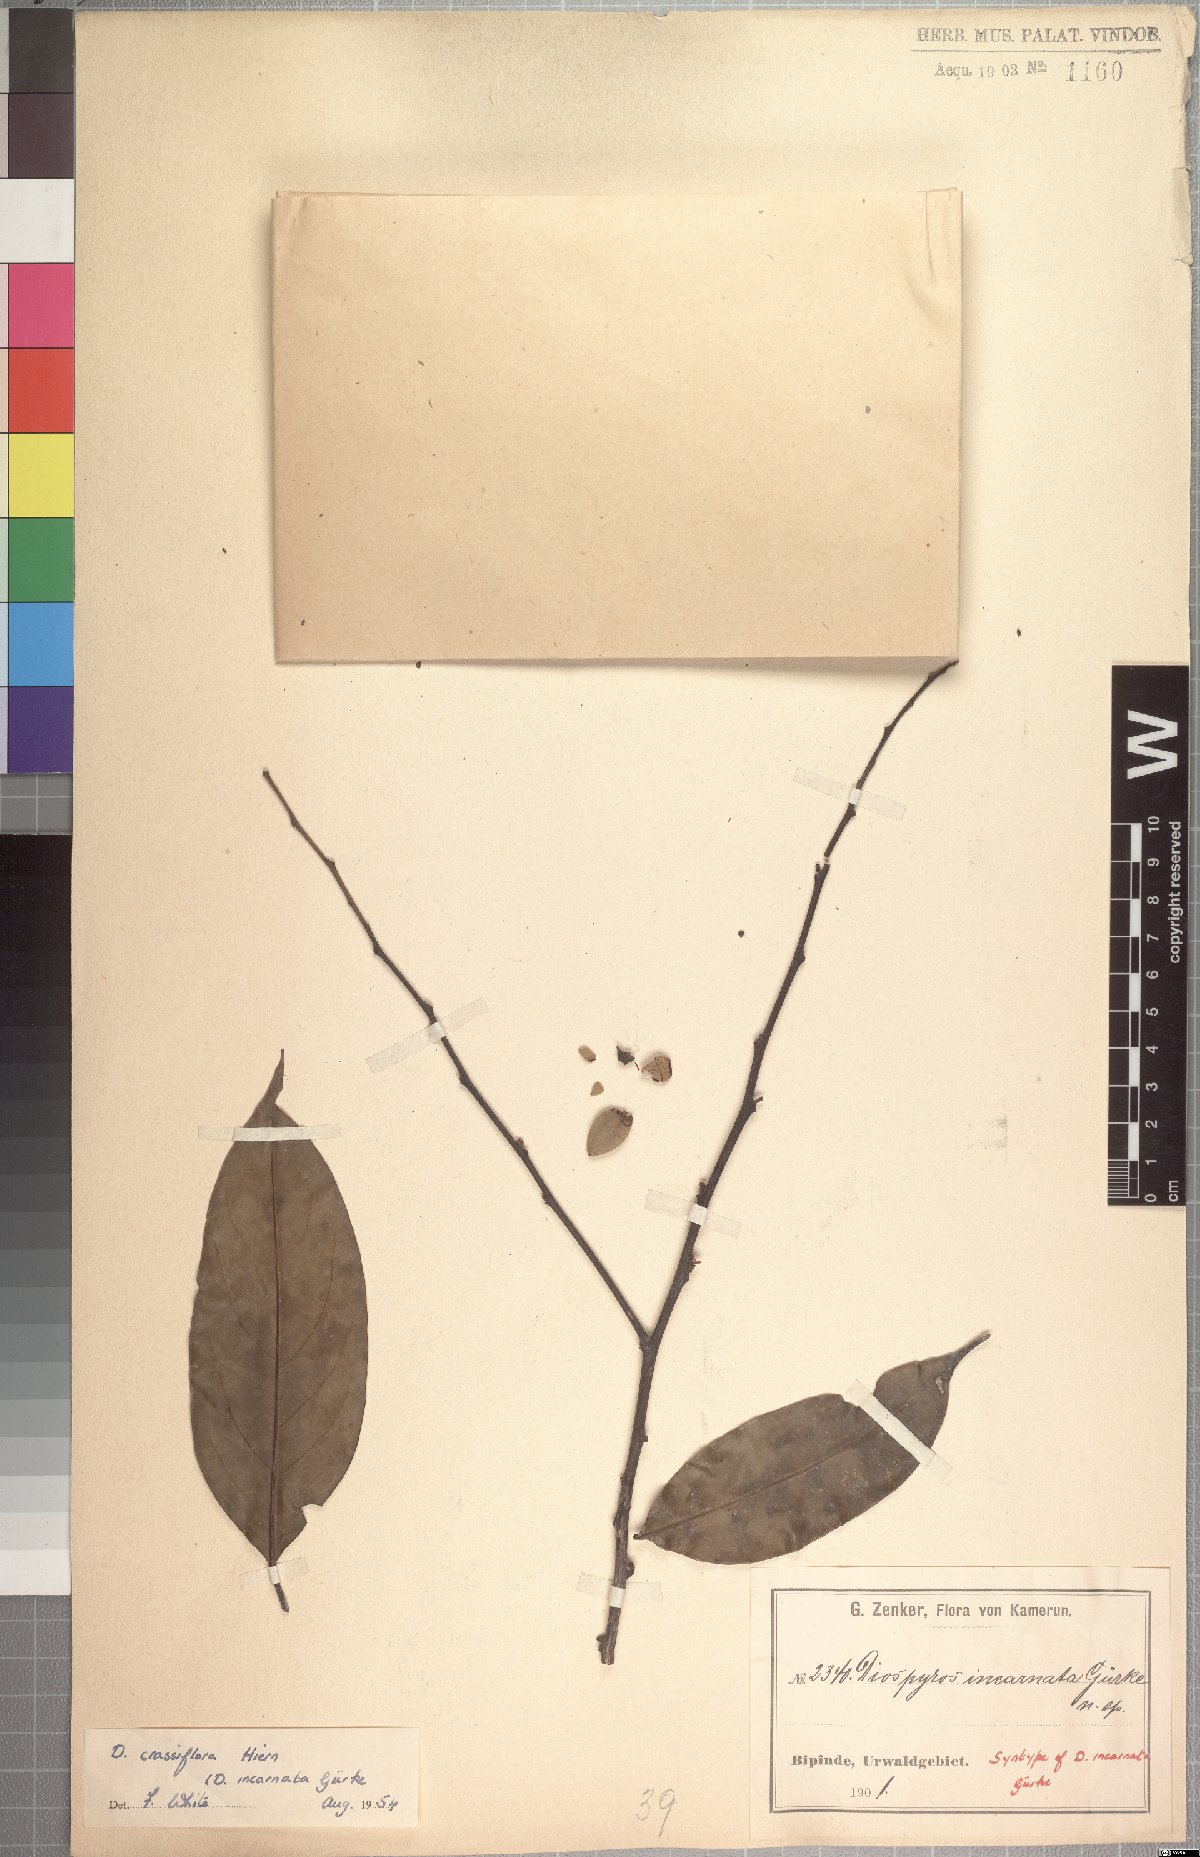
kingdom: Plantae
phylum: Tracheophyta
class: Magnoliopsida
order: Ericales
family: Ebenaceae
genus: Diospyros
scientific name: Diospyros crassiflora
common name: Ebony
